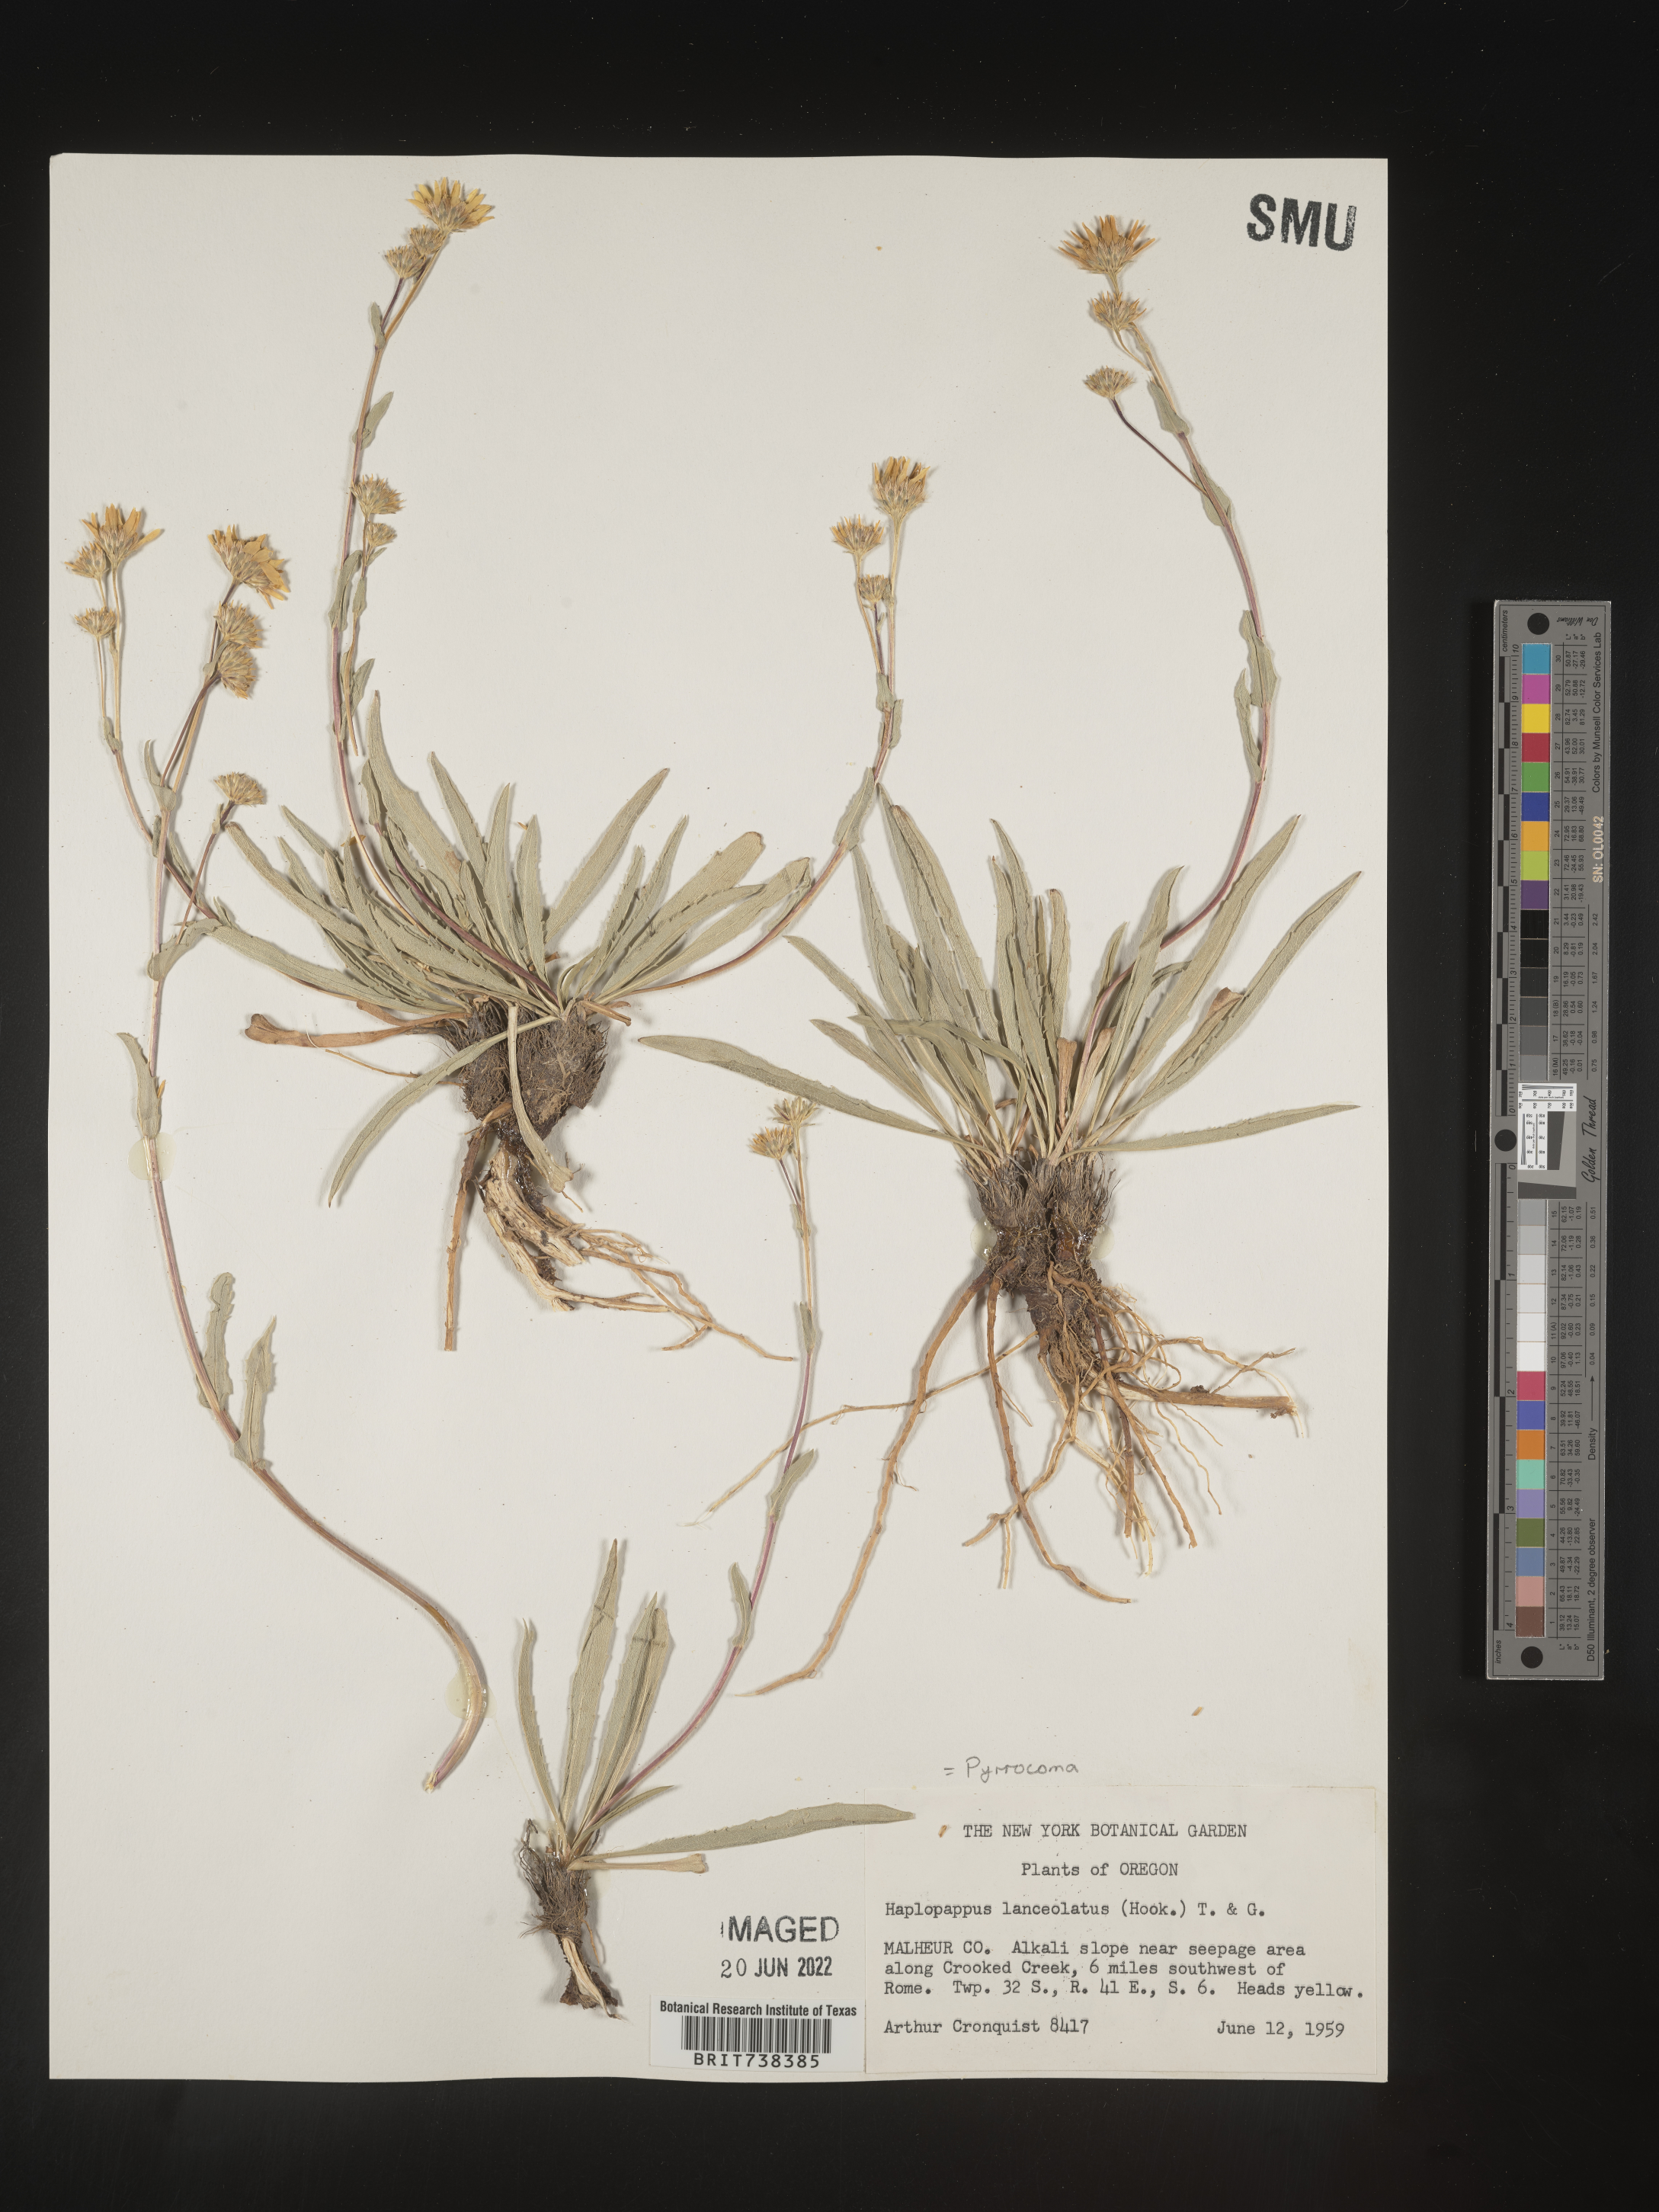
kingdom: Plantae
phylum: Tracheophyta
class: Magnoliopsida
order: Asterales
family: Asteraceae
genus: Pyrrocoma
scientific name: Pyrrocoma
